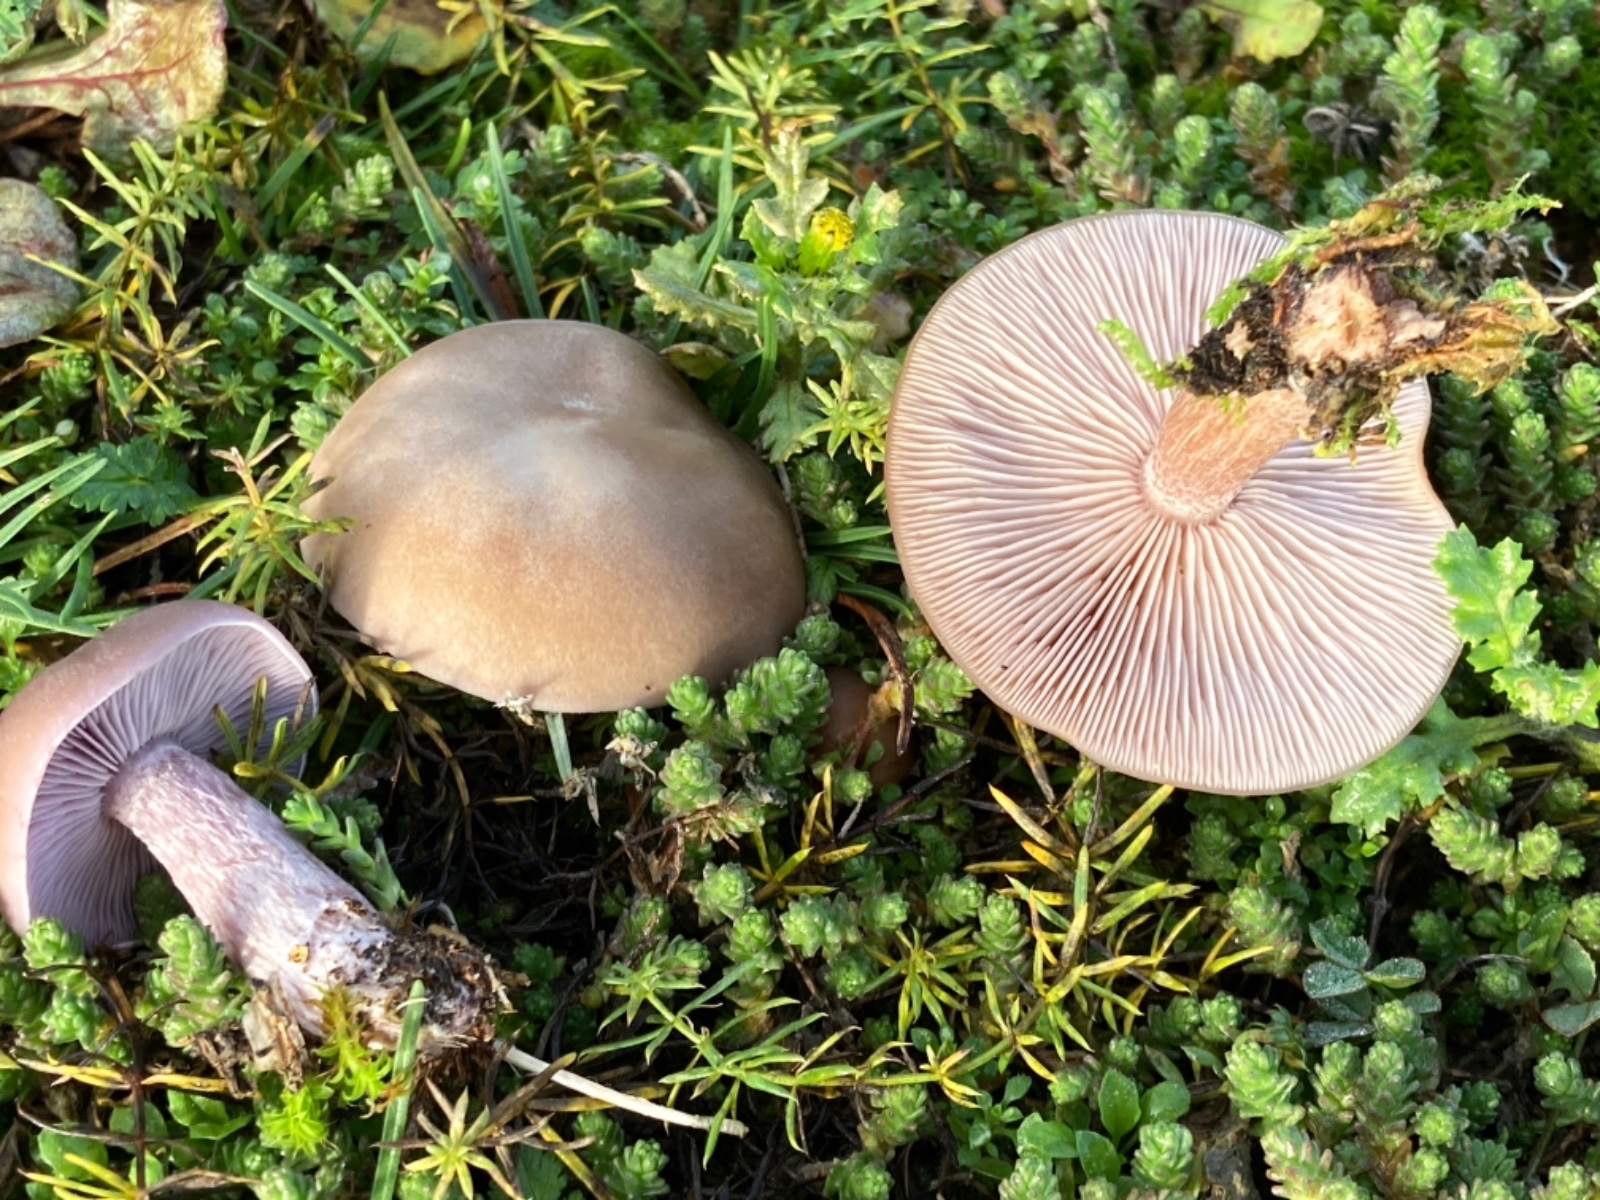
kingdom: Fungi
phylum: Basidiomycota
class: Agaricomycetes
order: Agaricales
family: Tricholomataceae
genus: Lepista
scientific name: Lepista nuda
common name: violet hekseringshat
